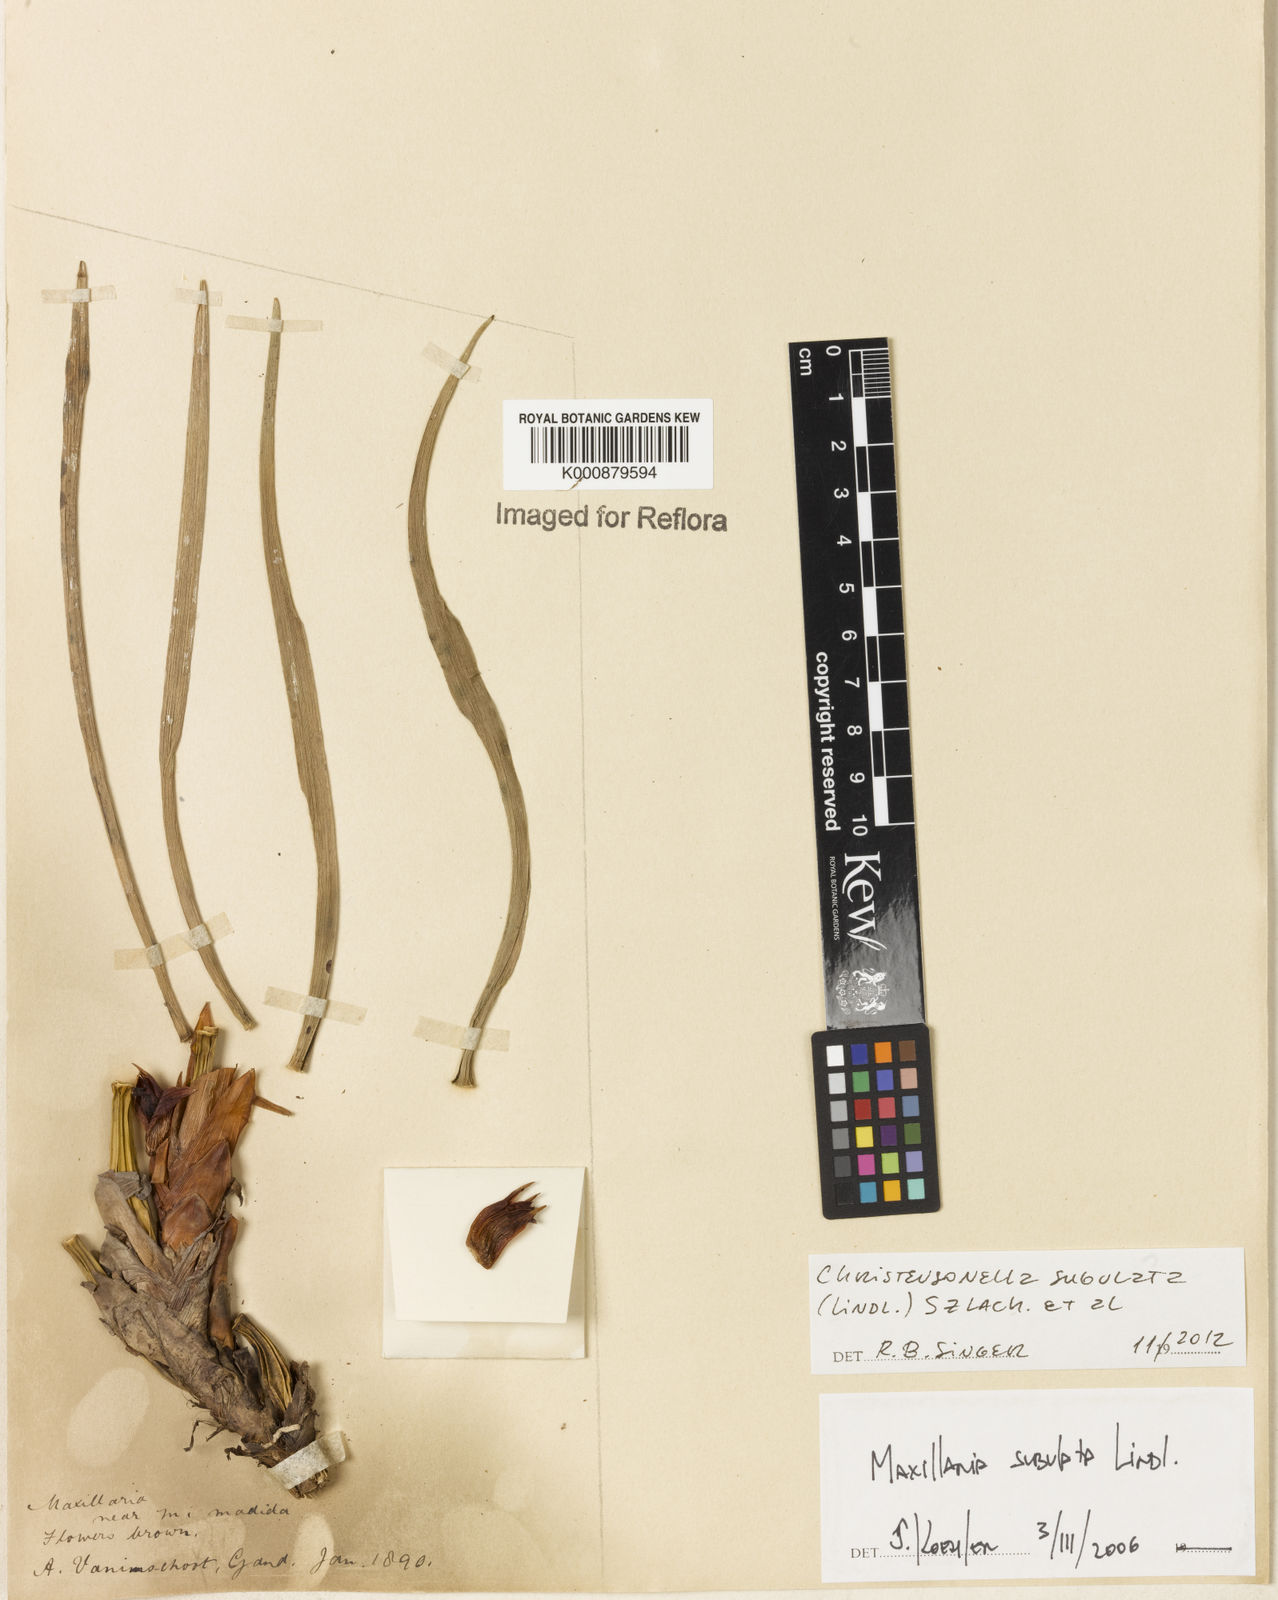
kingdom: Plantae
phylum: Tracheophyta
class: Liliopsida
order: Asparagales
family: Orchidaceae
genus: Maxillaria
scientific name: Maxillaria subulata
